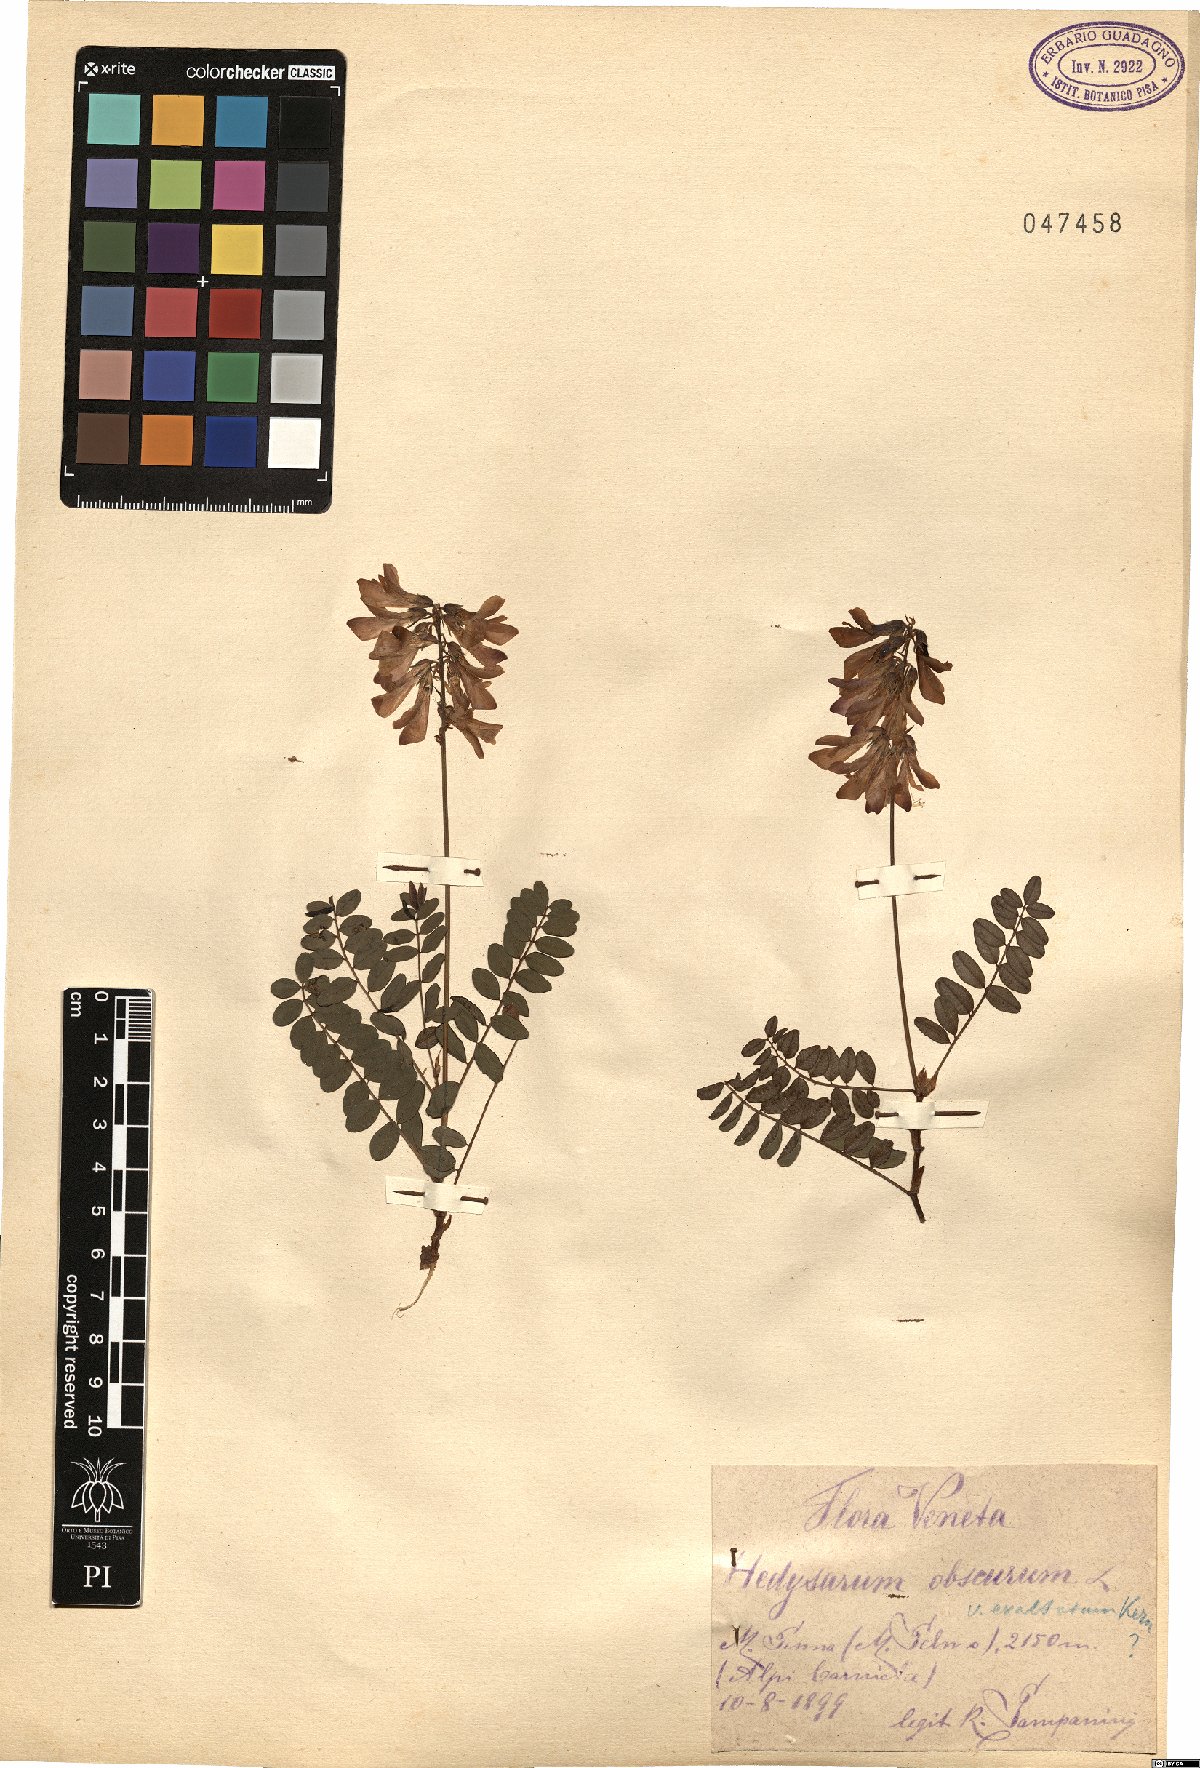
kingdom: Plantae
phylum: Tracheophyta
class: Magnoliopsida
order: Fabales
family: Fabaceae
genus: Hedysarum
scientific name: Hedysarum hedysaroides
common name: Alpine french-honeysuckle
